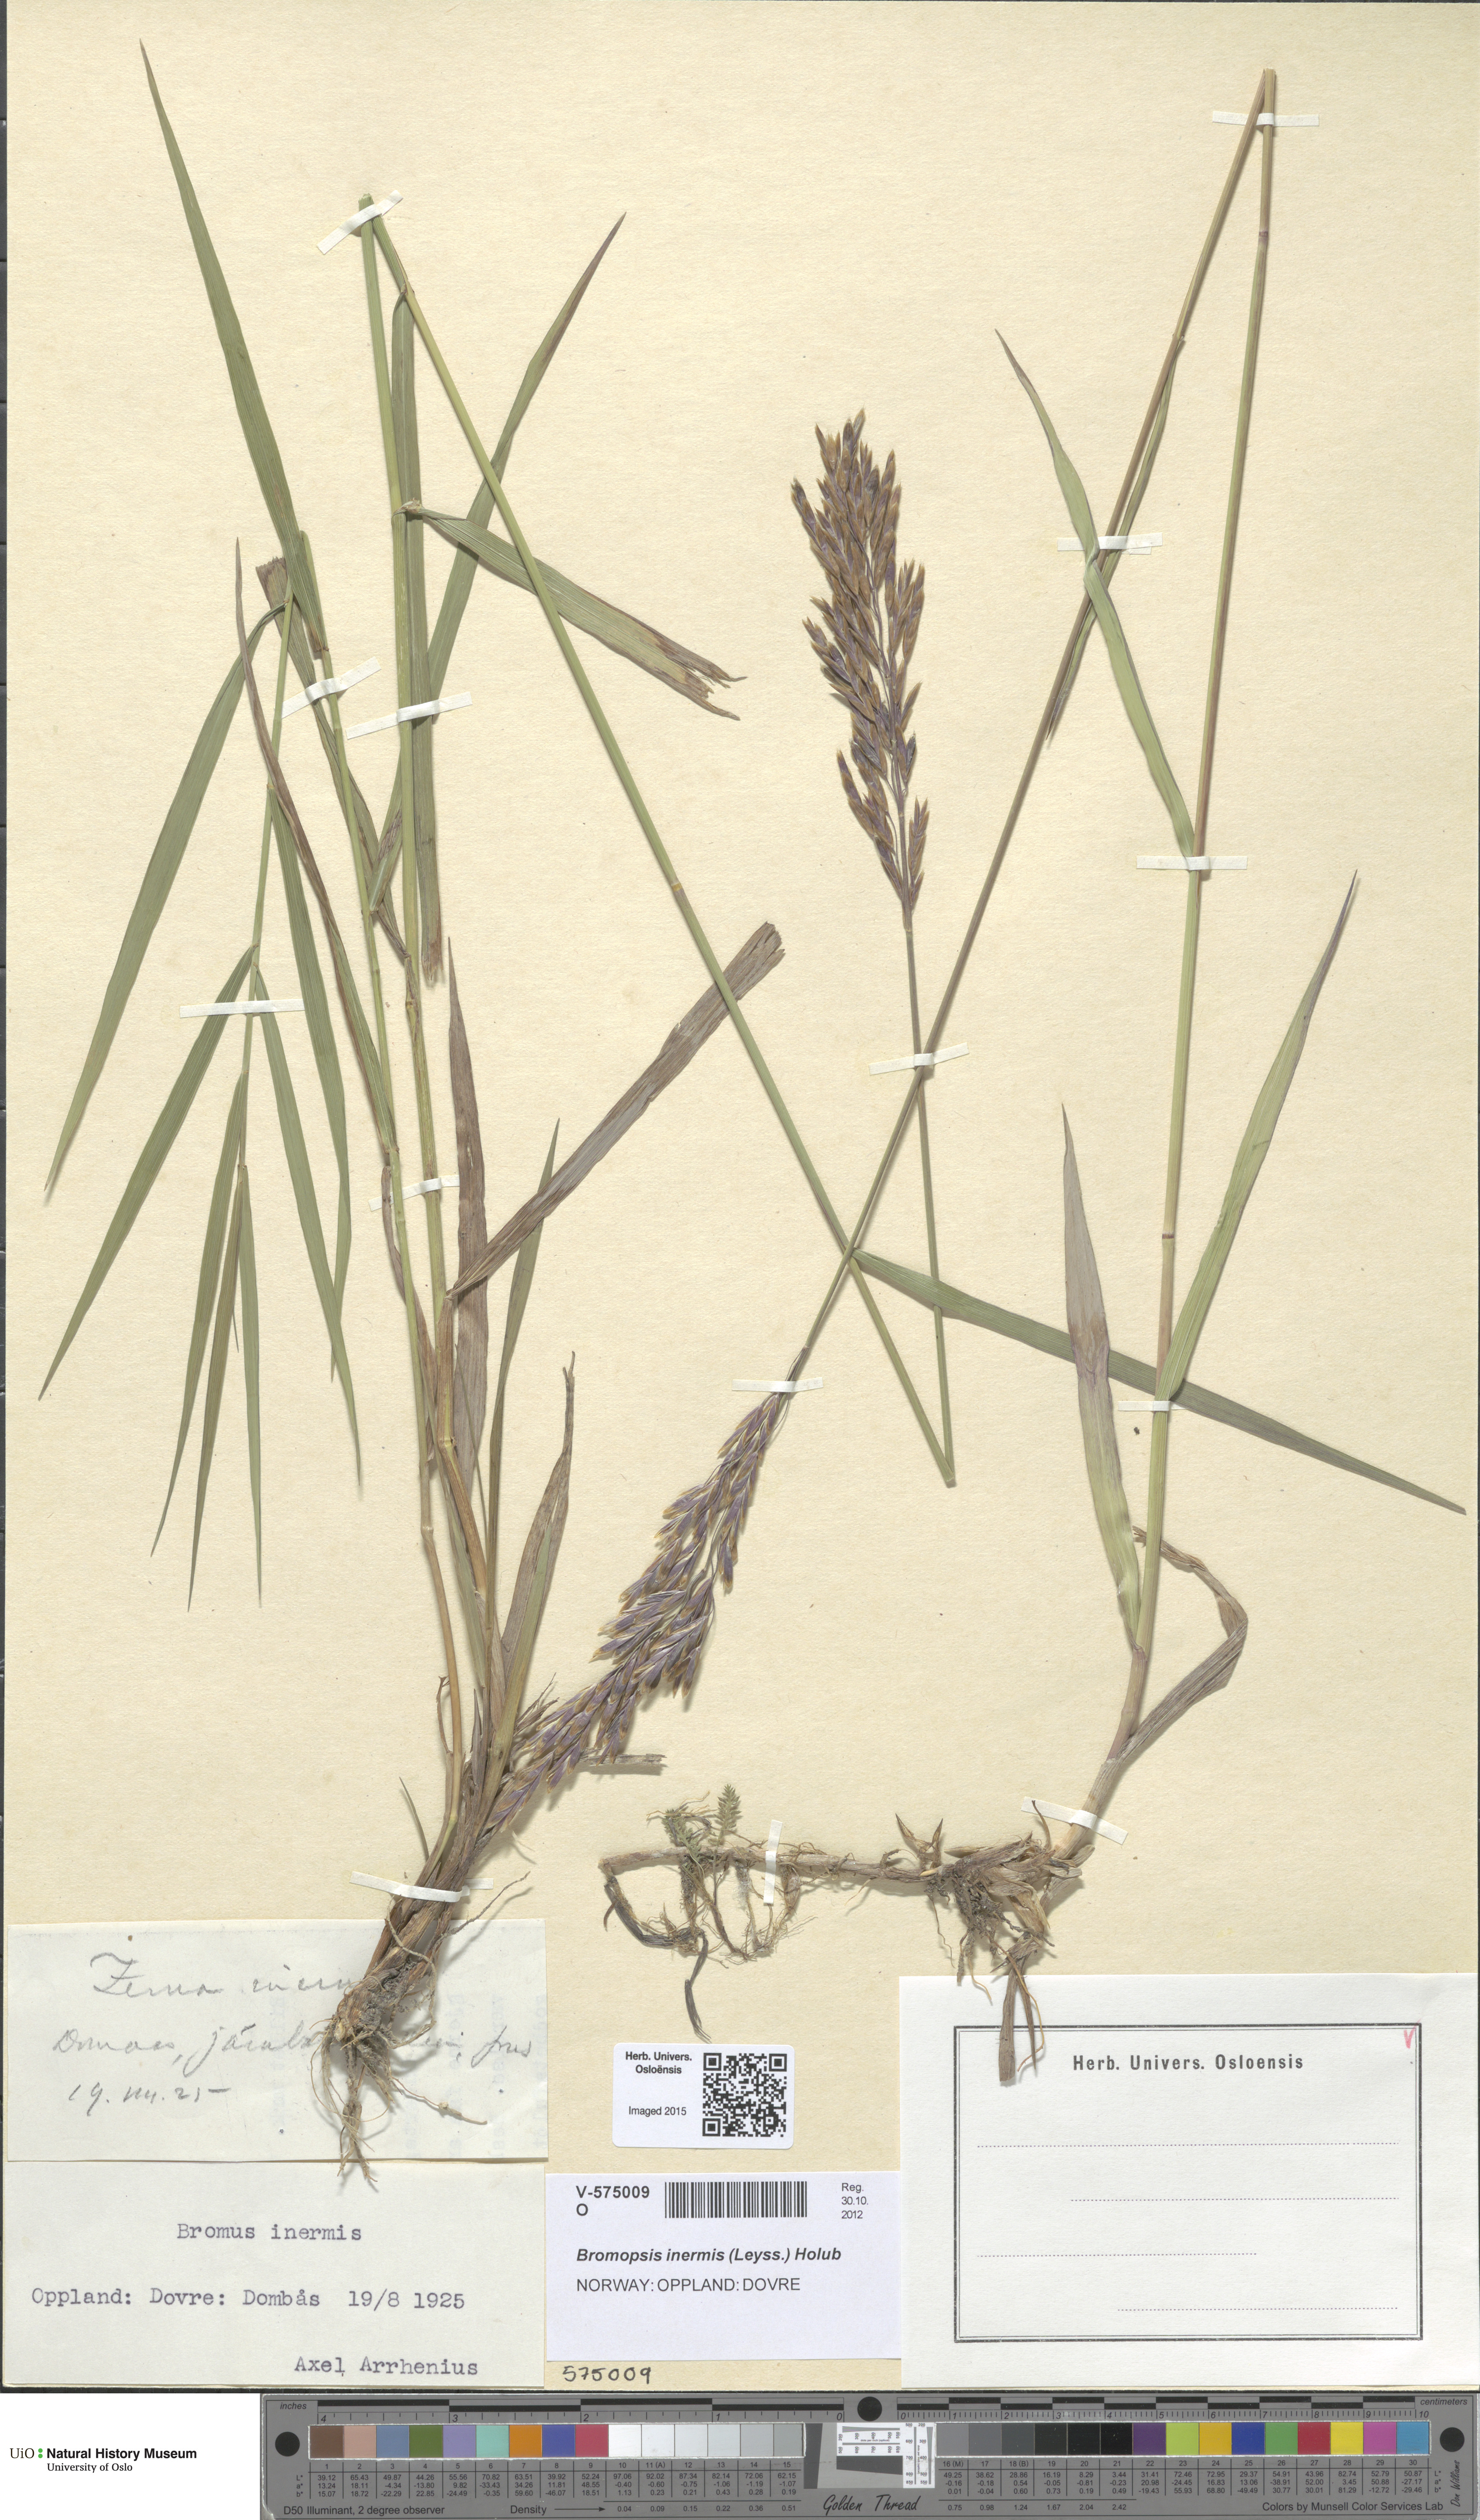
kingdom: Plantae
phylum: Tracheophyta
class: Liliopsida
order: Poales
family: Poaceae
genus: Bromus
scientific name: Bromus inermis
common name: Smooth brome
